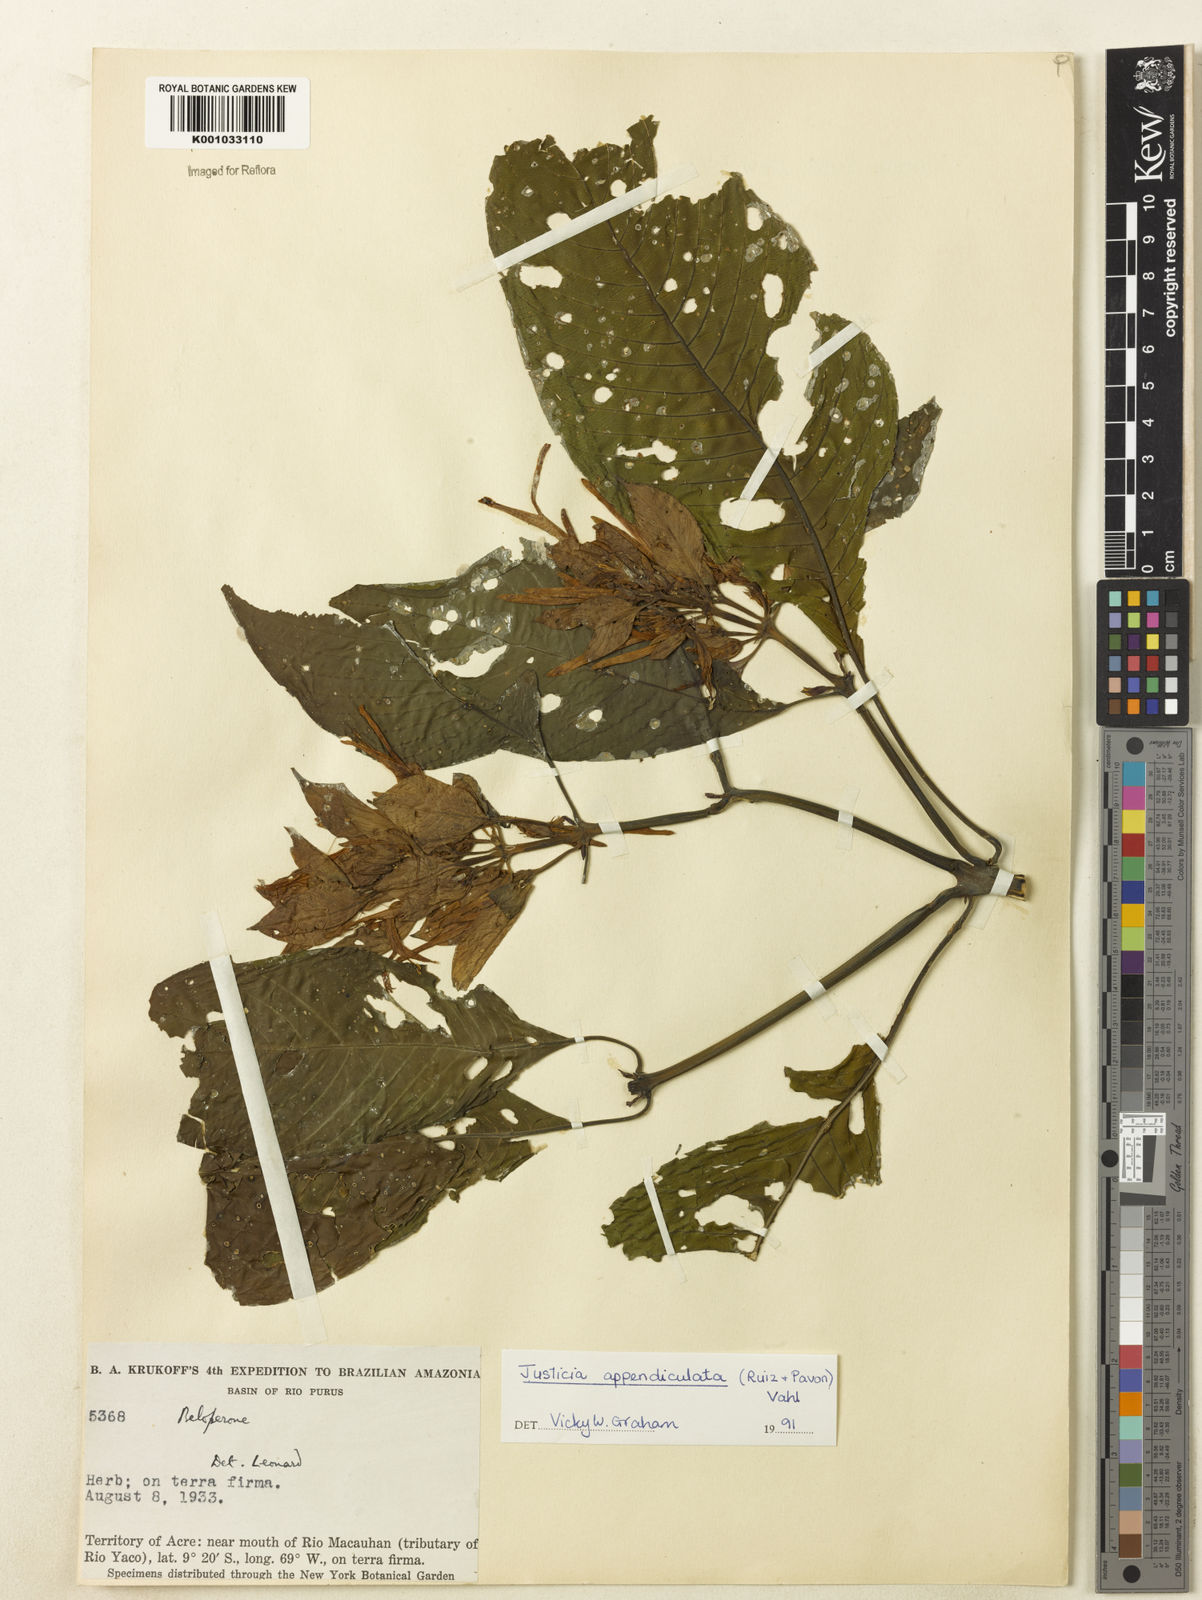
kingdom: Plantae
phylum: Tracheophyta
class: Magnoliopsida
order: Lamiales
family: Acanthaceae
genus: Dianthera
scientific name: Dianthera appendiculata
